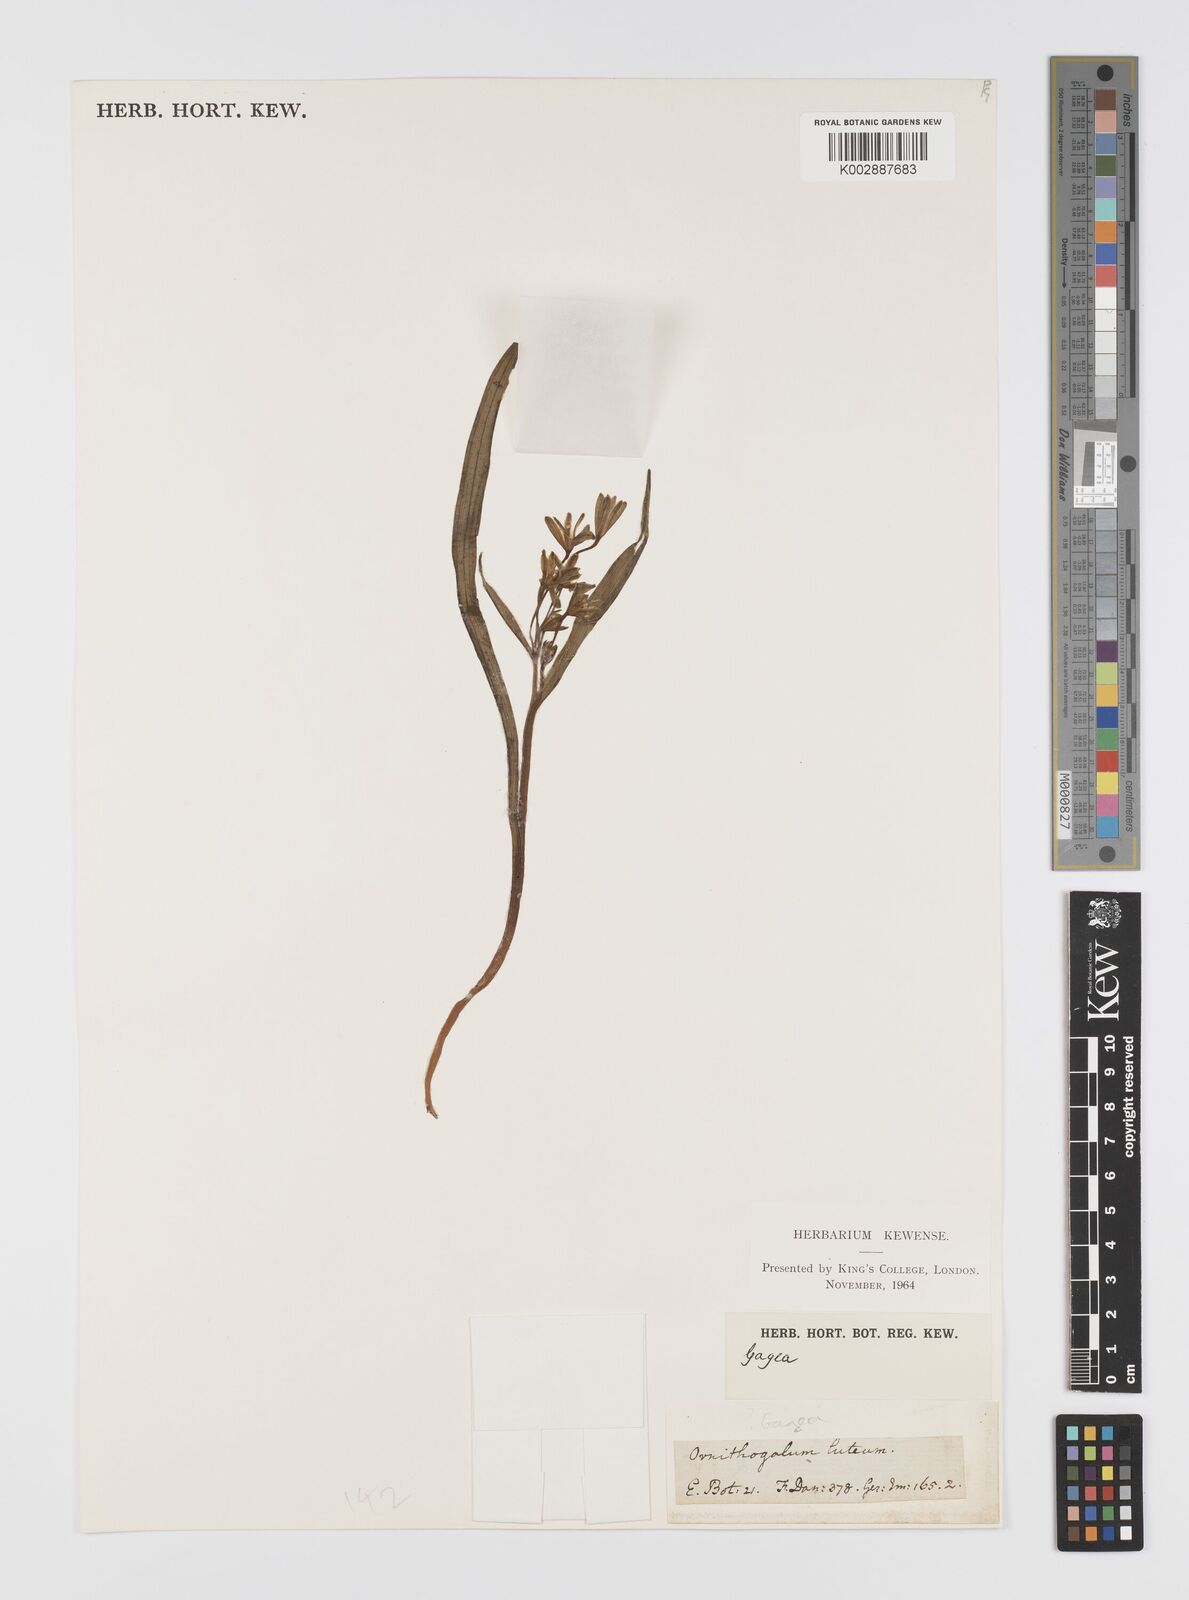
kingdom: Plantae
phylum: Tracheophyta
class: Liliopsida
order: Liliales
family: Liliaceae
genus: Gagea
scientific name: Gagea
